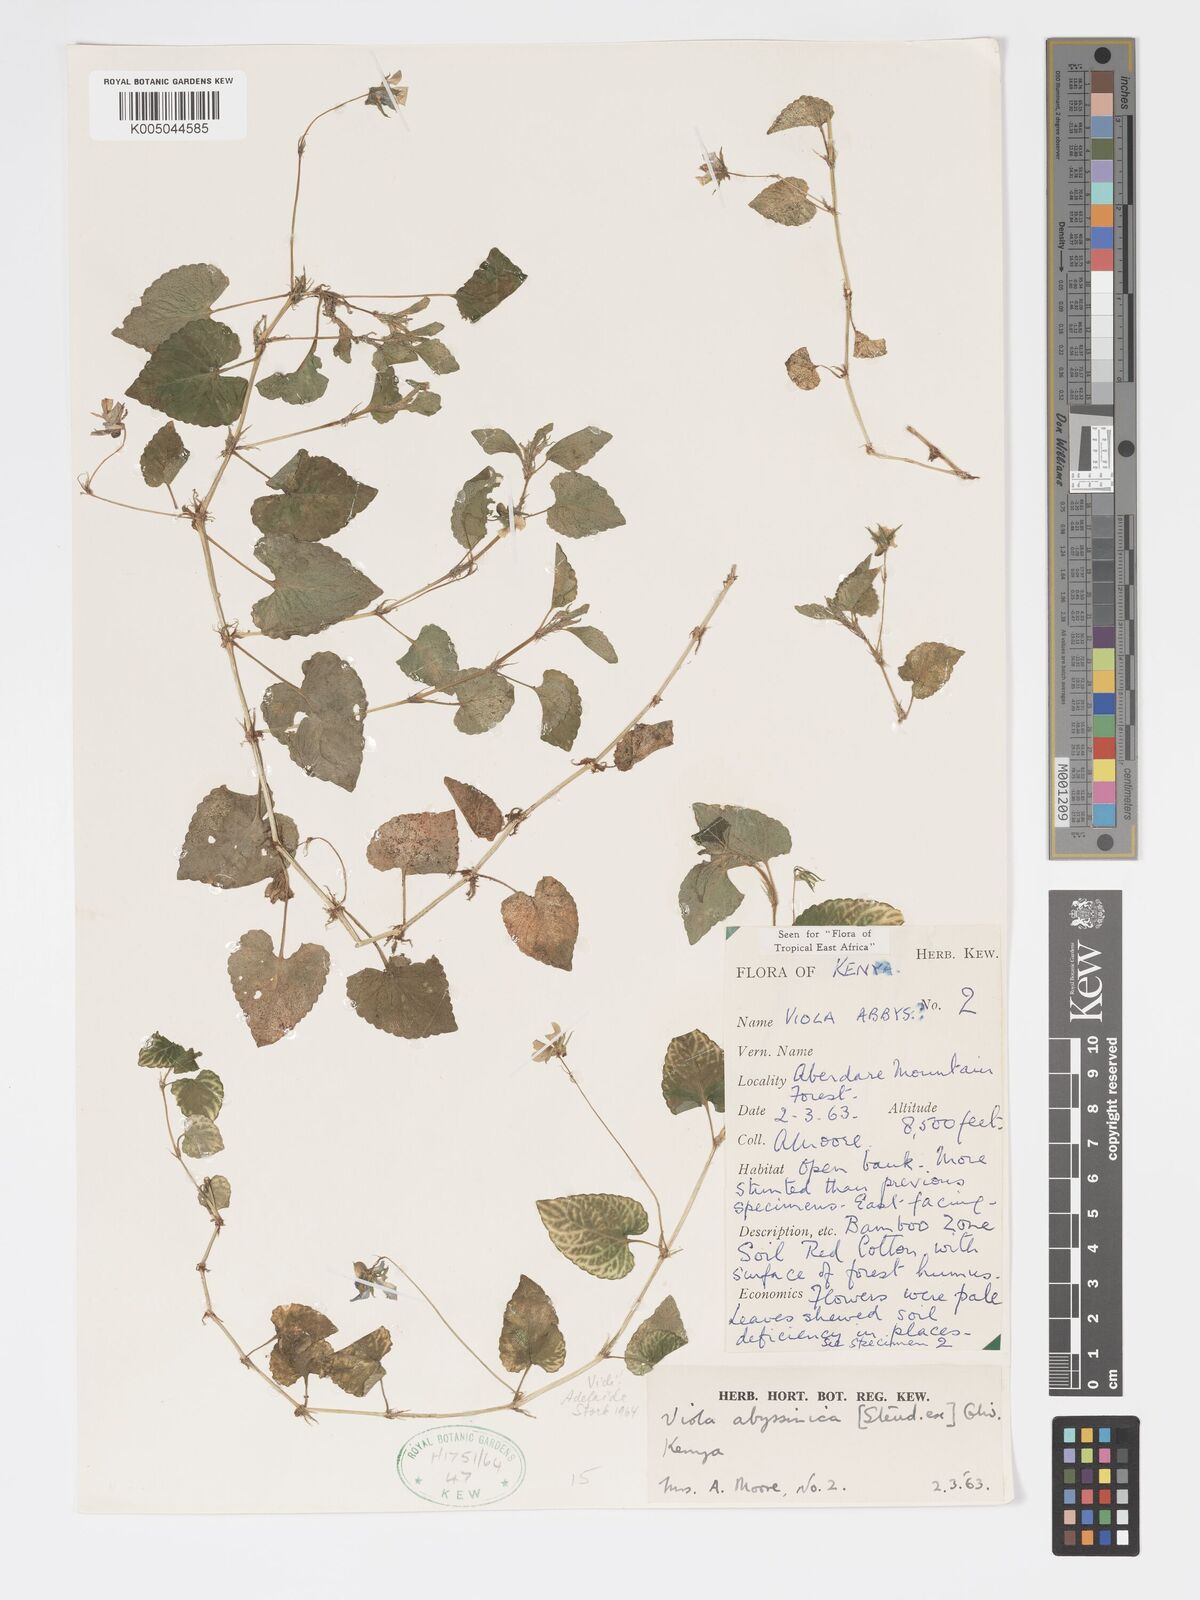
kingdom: Plantae
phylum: Tracheophyta
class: Magnoliopsida
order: Malpighiales
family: Violaceae
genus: Viola
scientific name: Viola abyssinica
